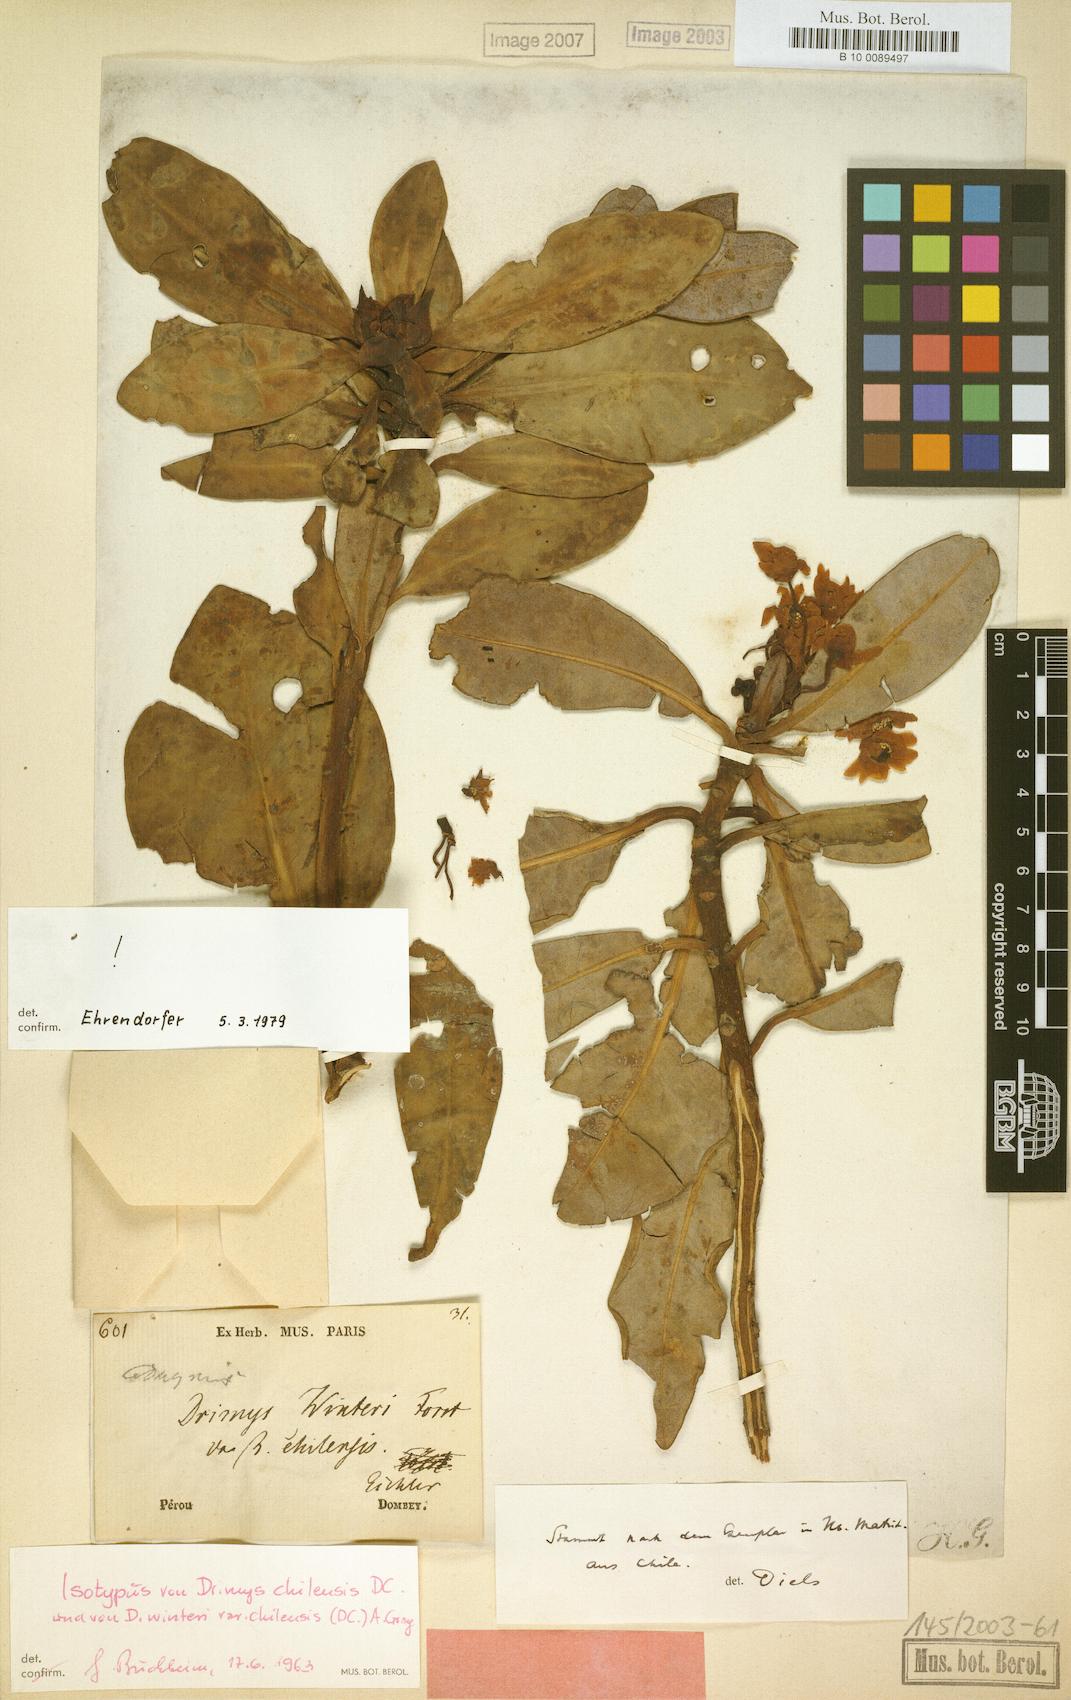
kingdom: Plantae
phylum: Tracheophyta
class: Magnoliopsida
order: Canellales
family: Winteraceae
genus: Drimys
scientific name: Drimys winteri
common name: Winter's-bark
